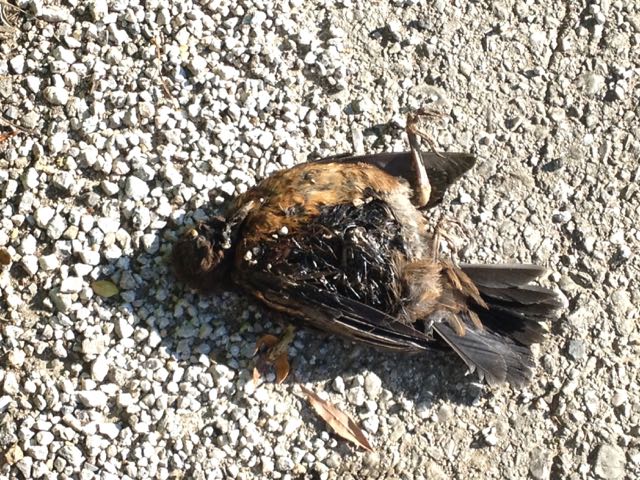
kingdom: Animalia
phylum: Chordata
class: Aves
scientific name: Aves
